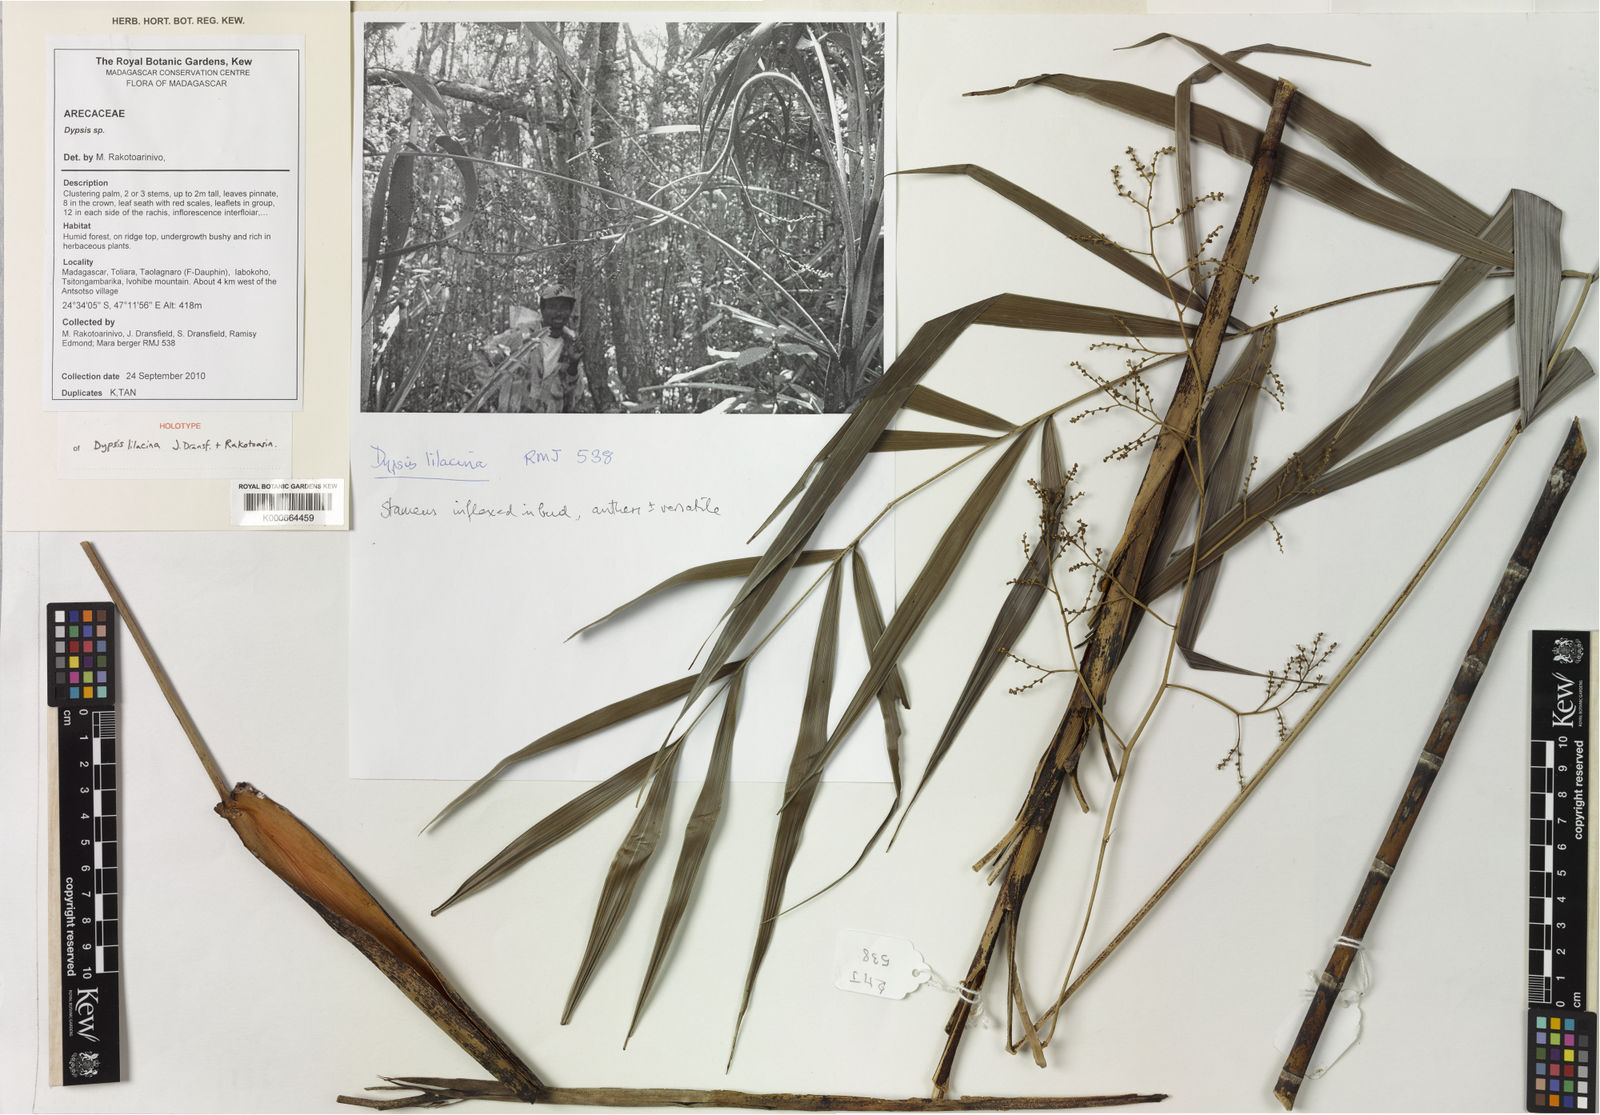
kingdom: Plantae
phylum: Tracheophyta
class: Liliopsida
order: Arecales
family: Arecaceae
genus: Dypsis
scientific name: Dypsis lilacina
